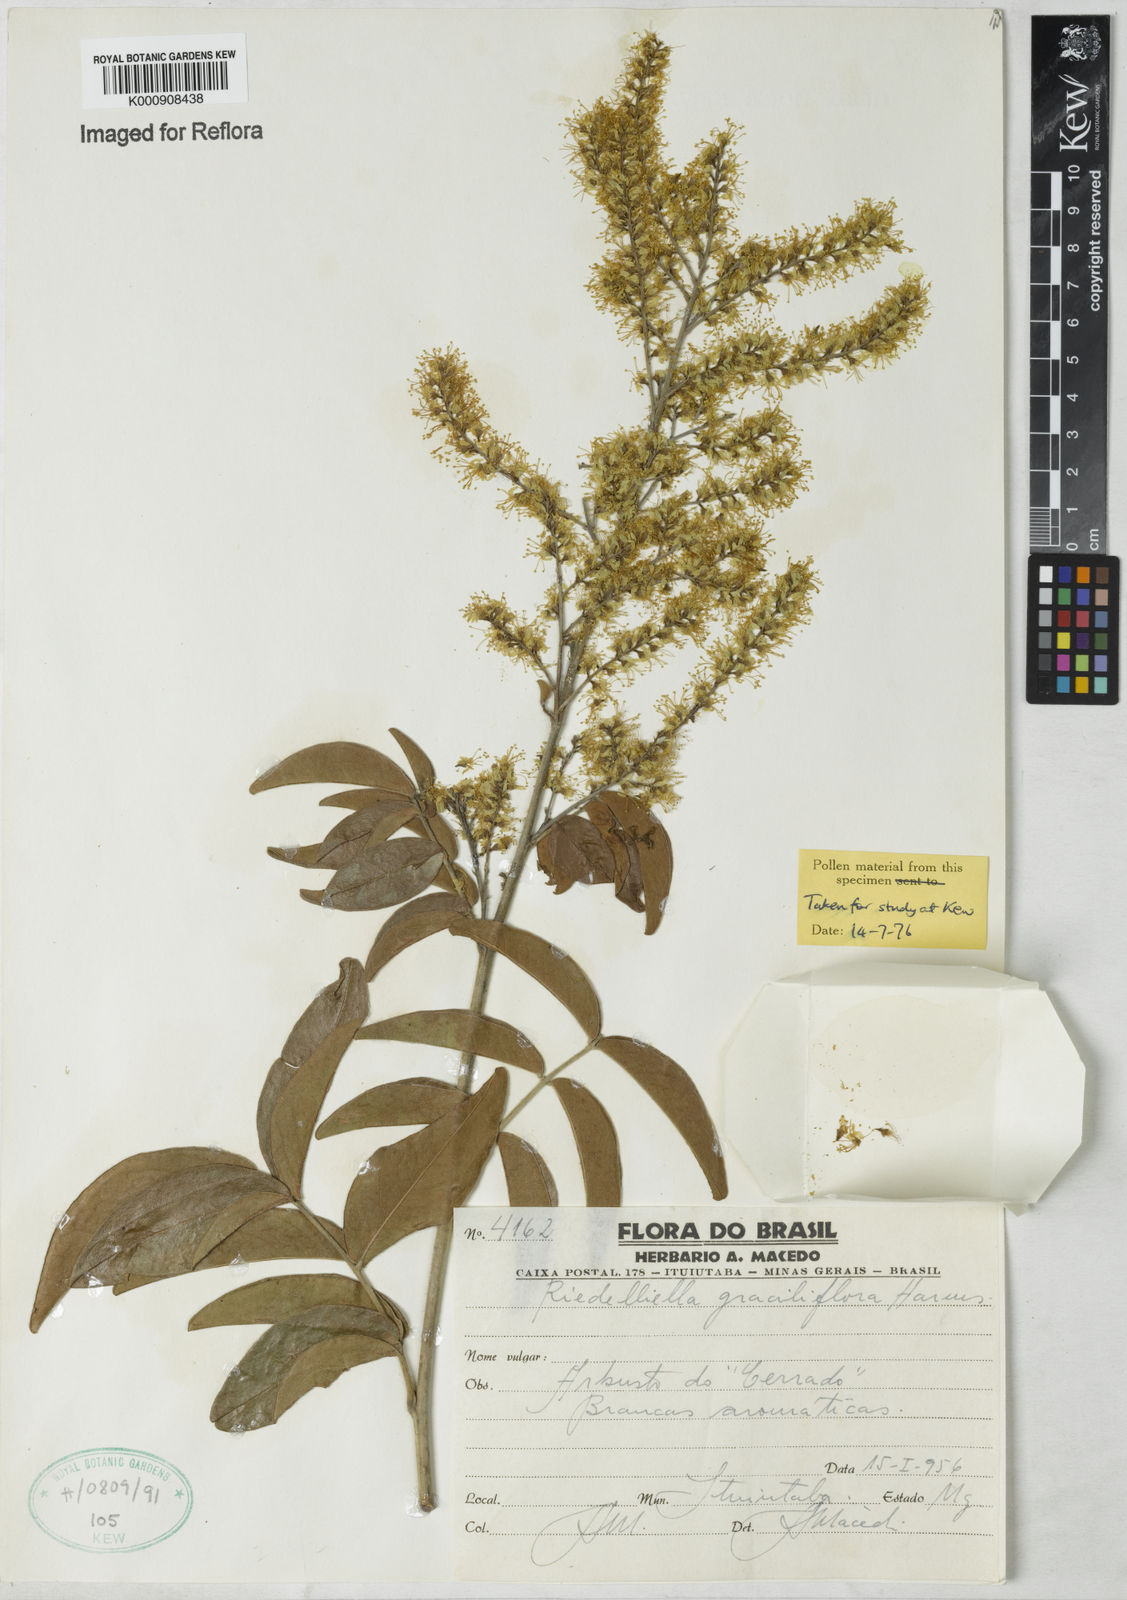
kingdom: Plantae
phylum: Tracheophyta
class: Magnoliopsida
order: Fabales
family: Fabaceae
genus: Riedeliella
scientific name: Riedeliella graciliflora
